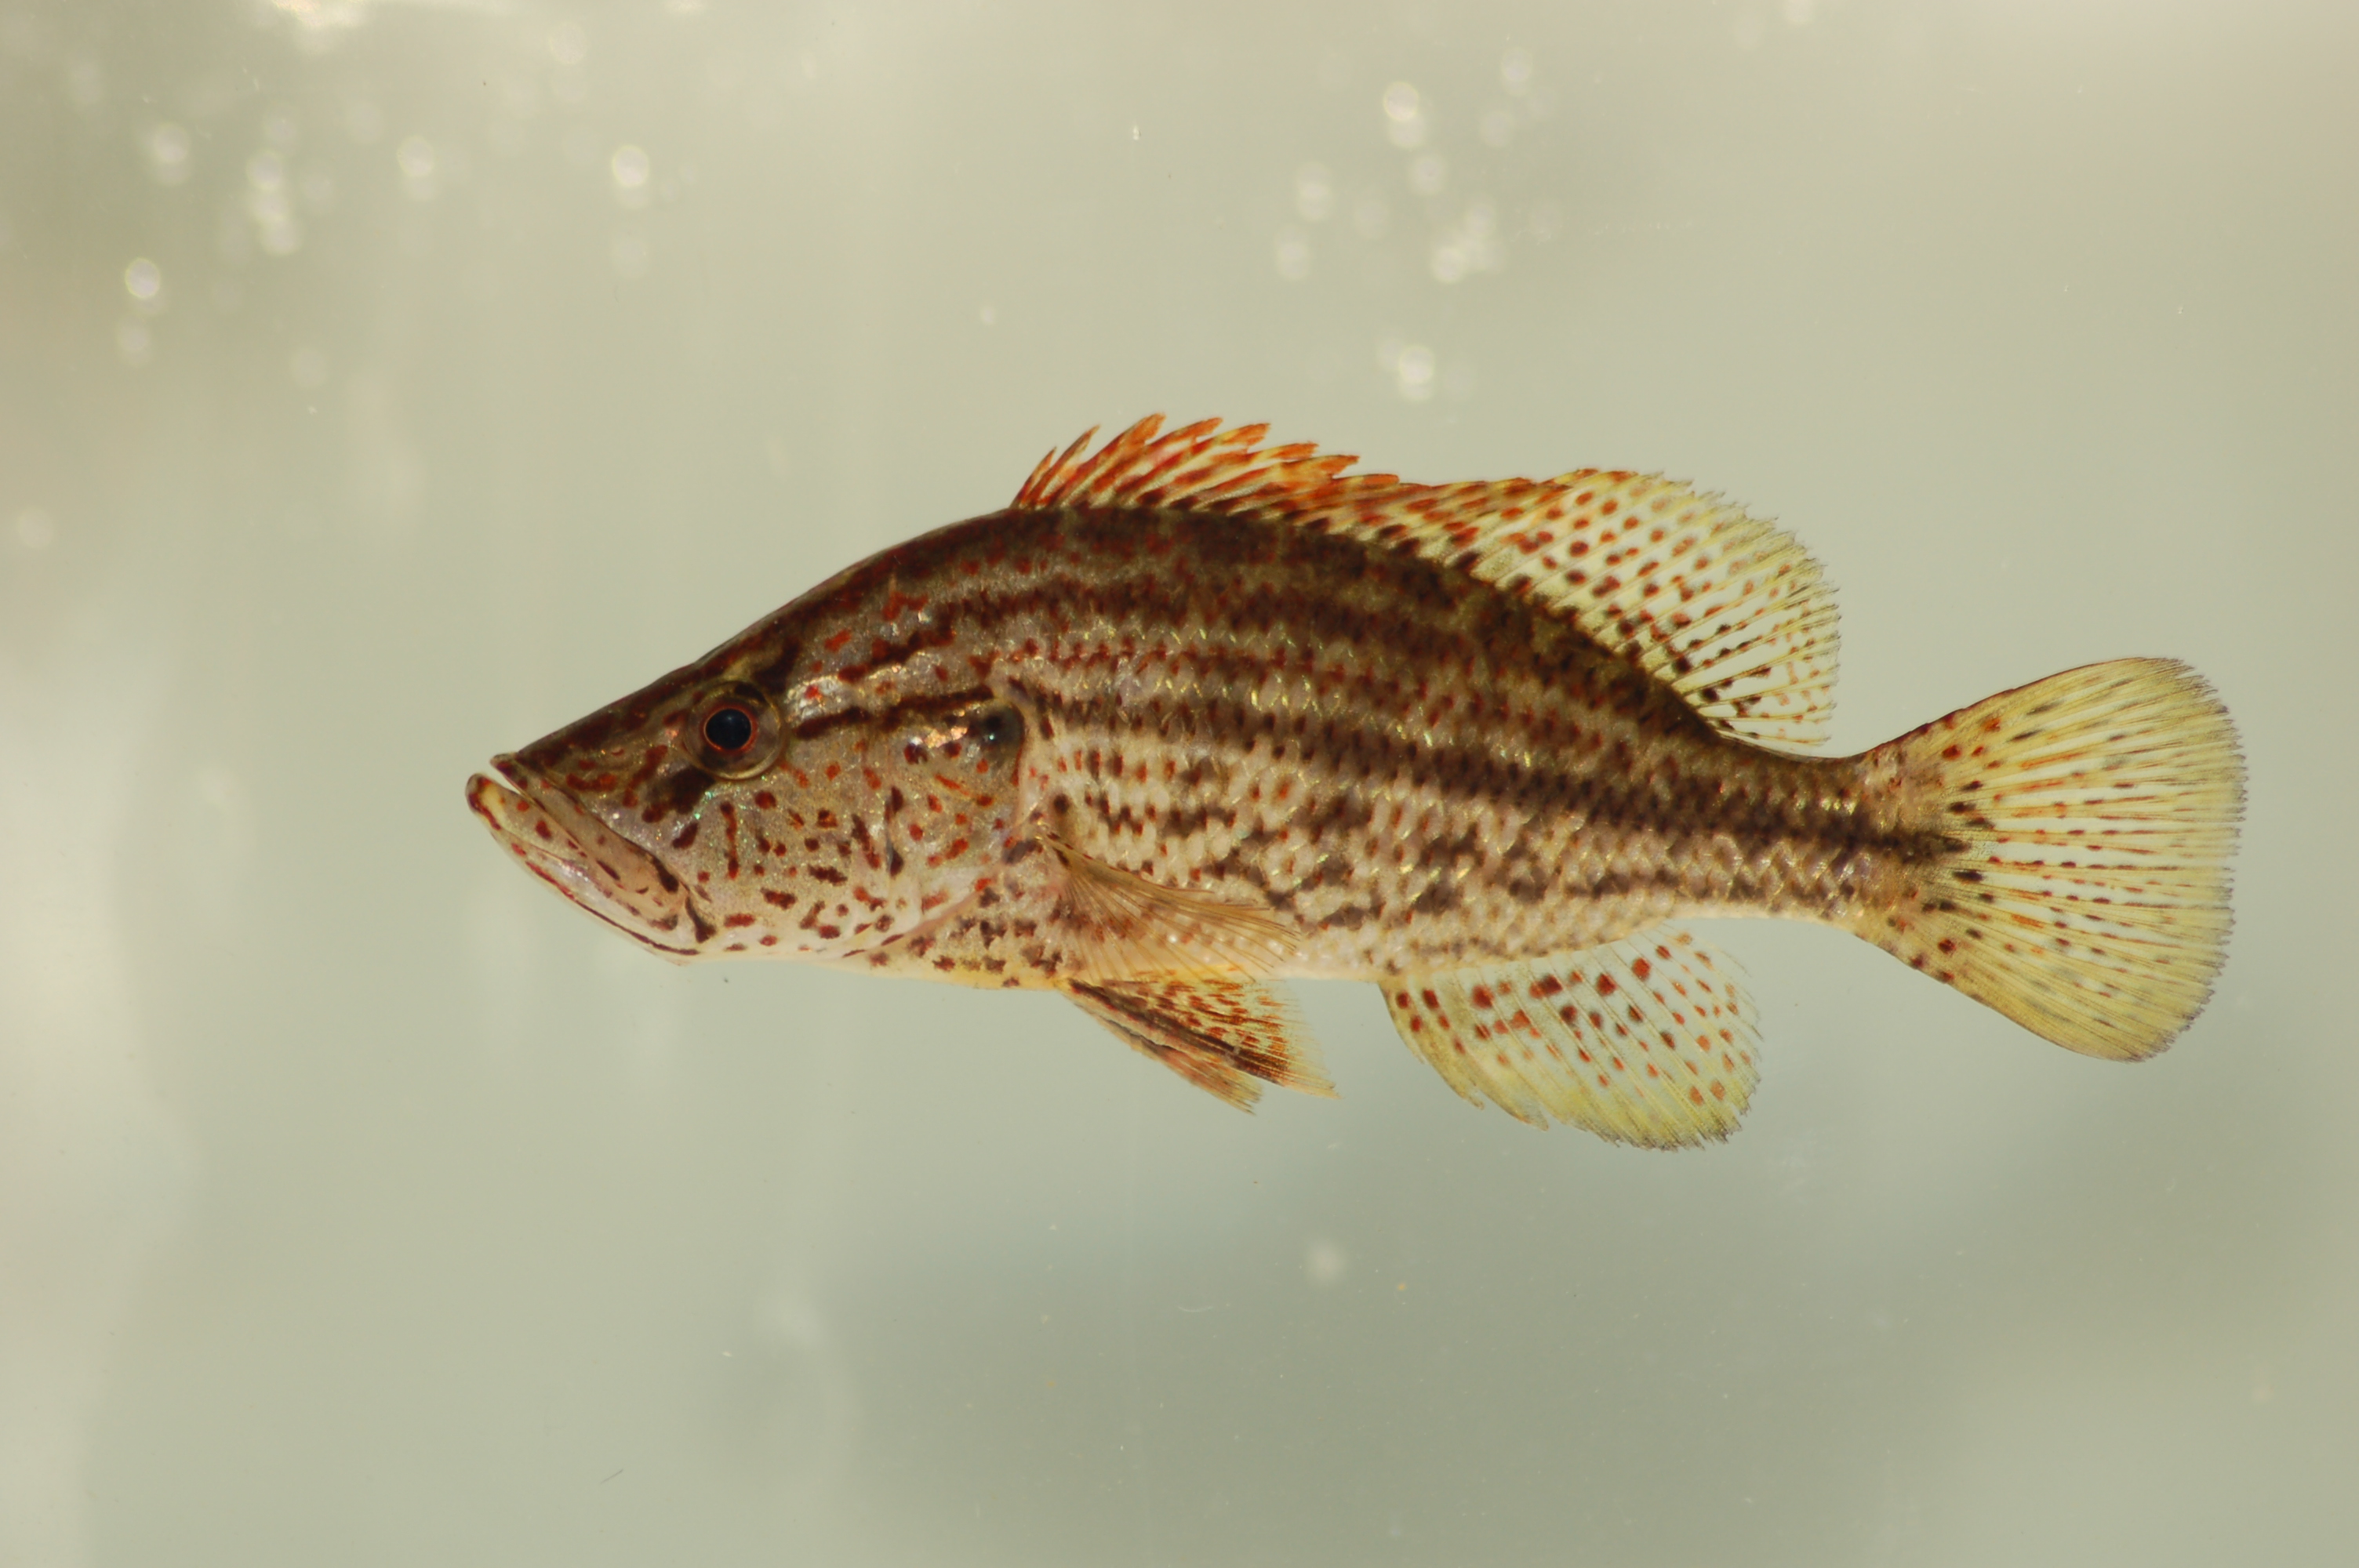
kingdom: Animalia
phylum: Chordata
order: Perciformes
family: Cichlidae
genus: Serranochromis
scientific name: Serranochromis angusticeps
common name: Thinface largemouth
